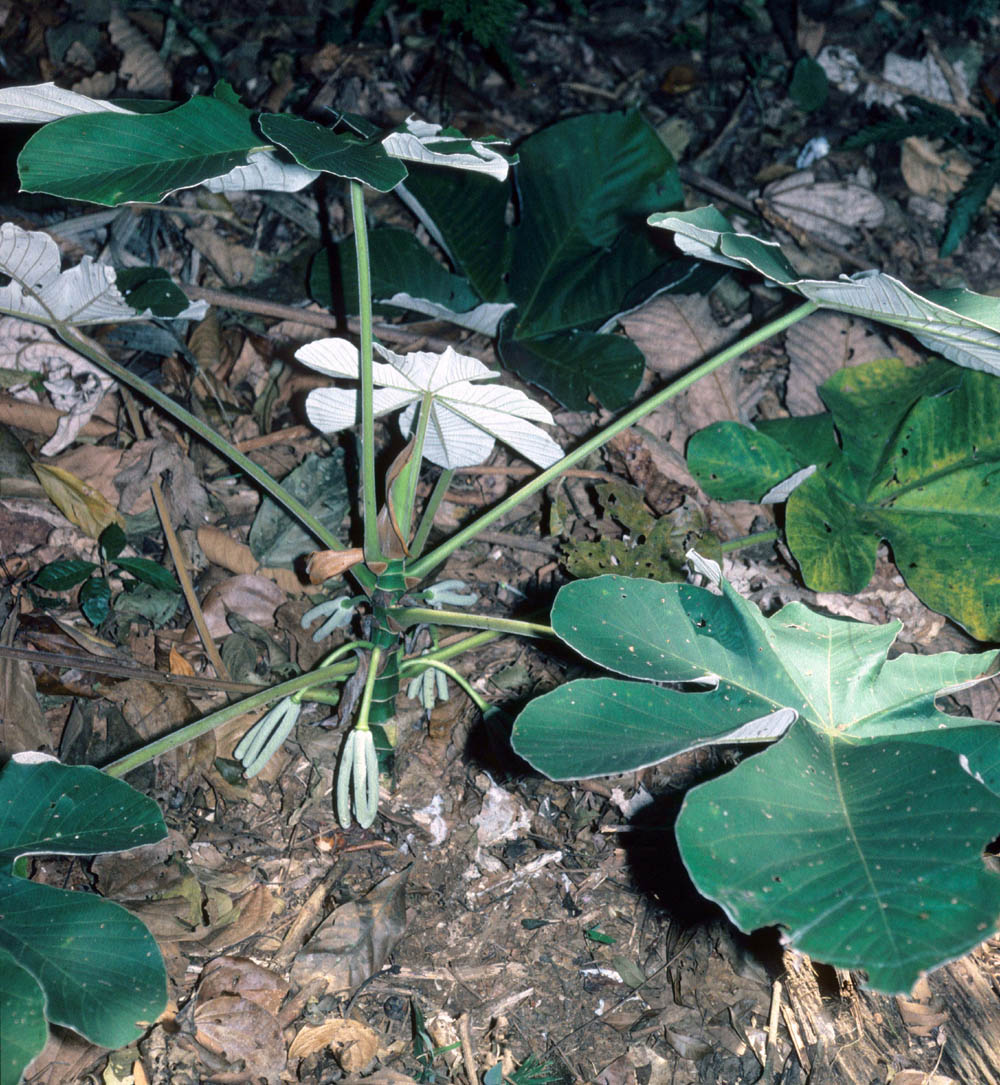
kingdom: Plantae
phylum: Tracheophyta
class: Magnoliopsida
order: Rosales
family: Urticaceae
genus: Cecropia
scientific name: Cecropia ficifolia
